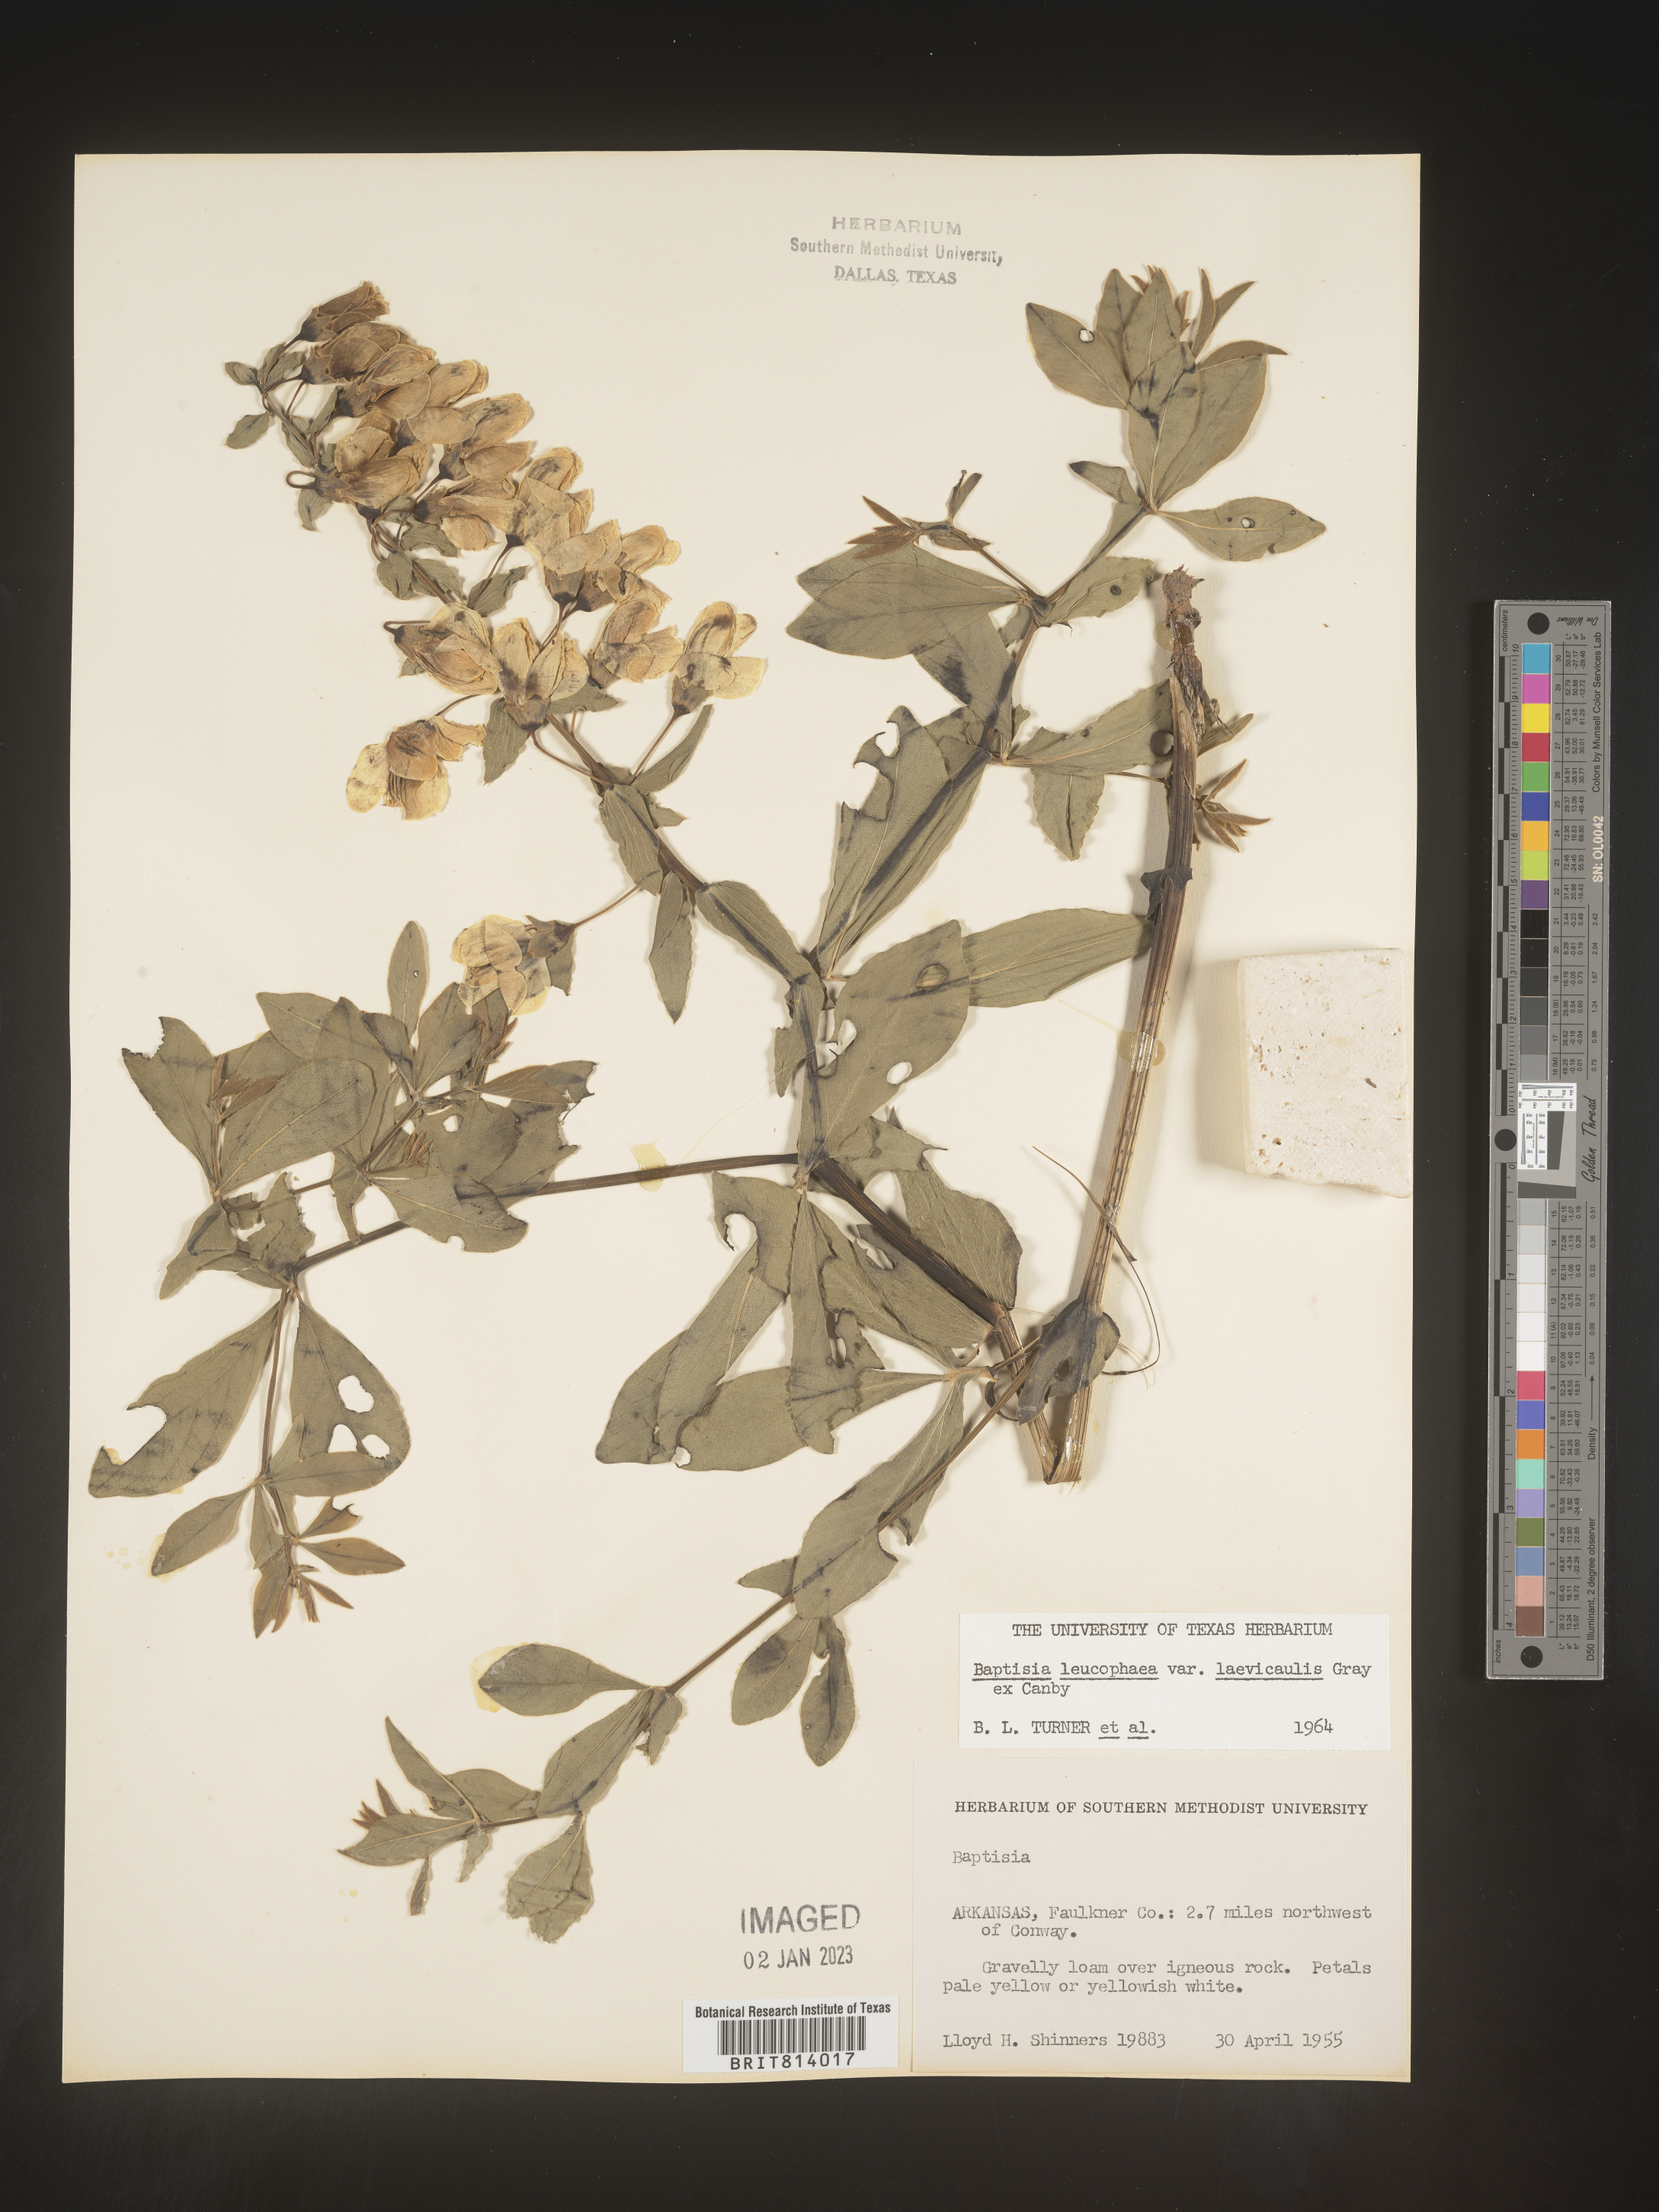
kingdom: Plantae
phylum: Tracheophyta
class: Magnoliopsida
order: Fabales
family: Fabaceae
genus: Baptisia
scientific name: Baptisia bracteata
